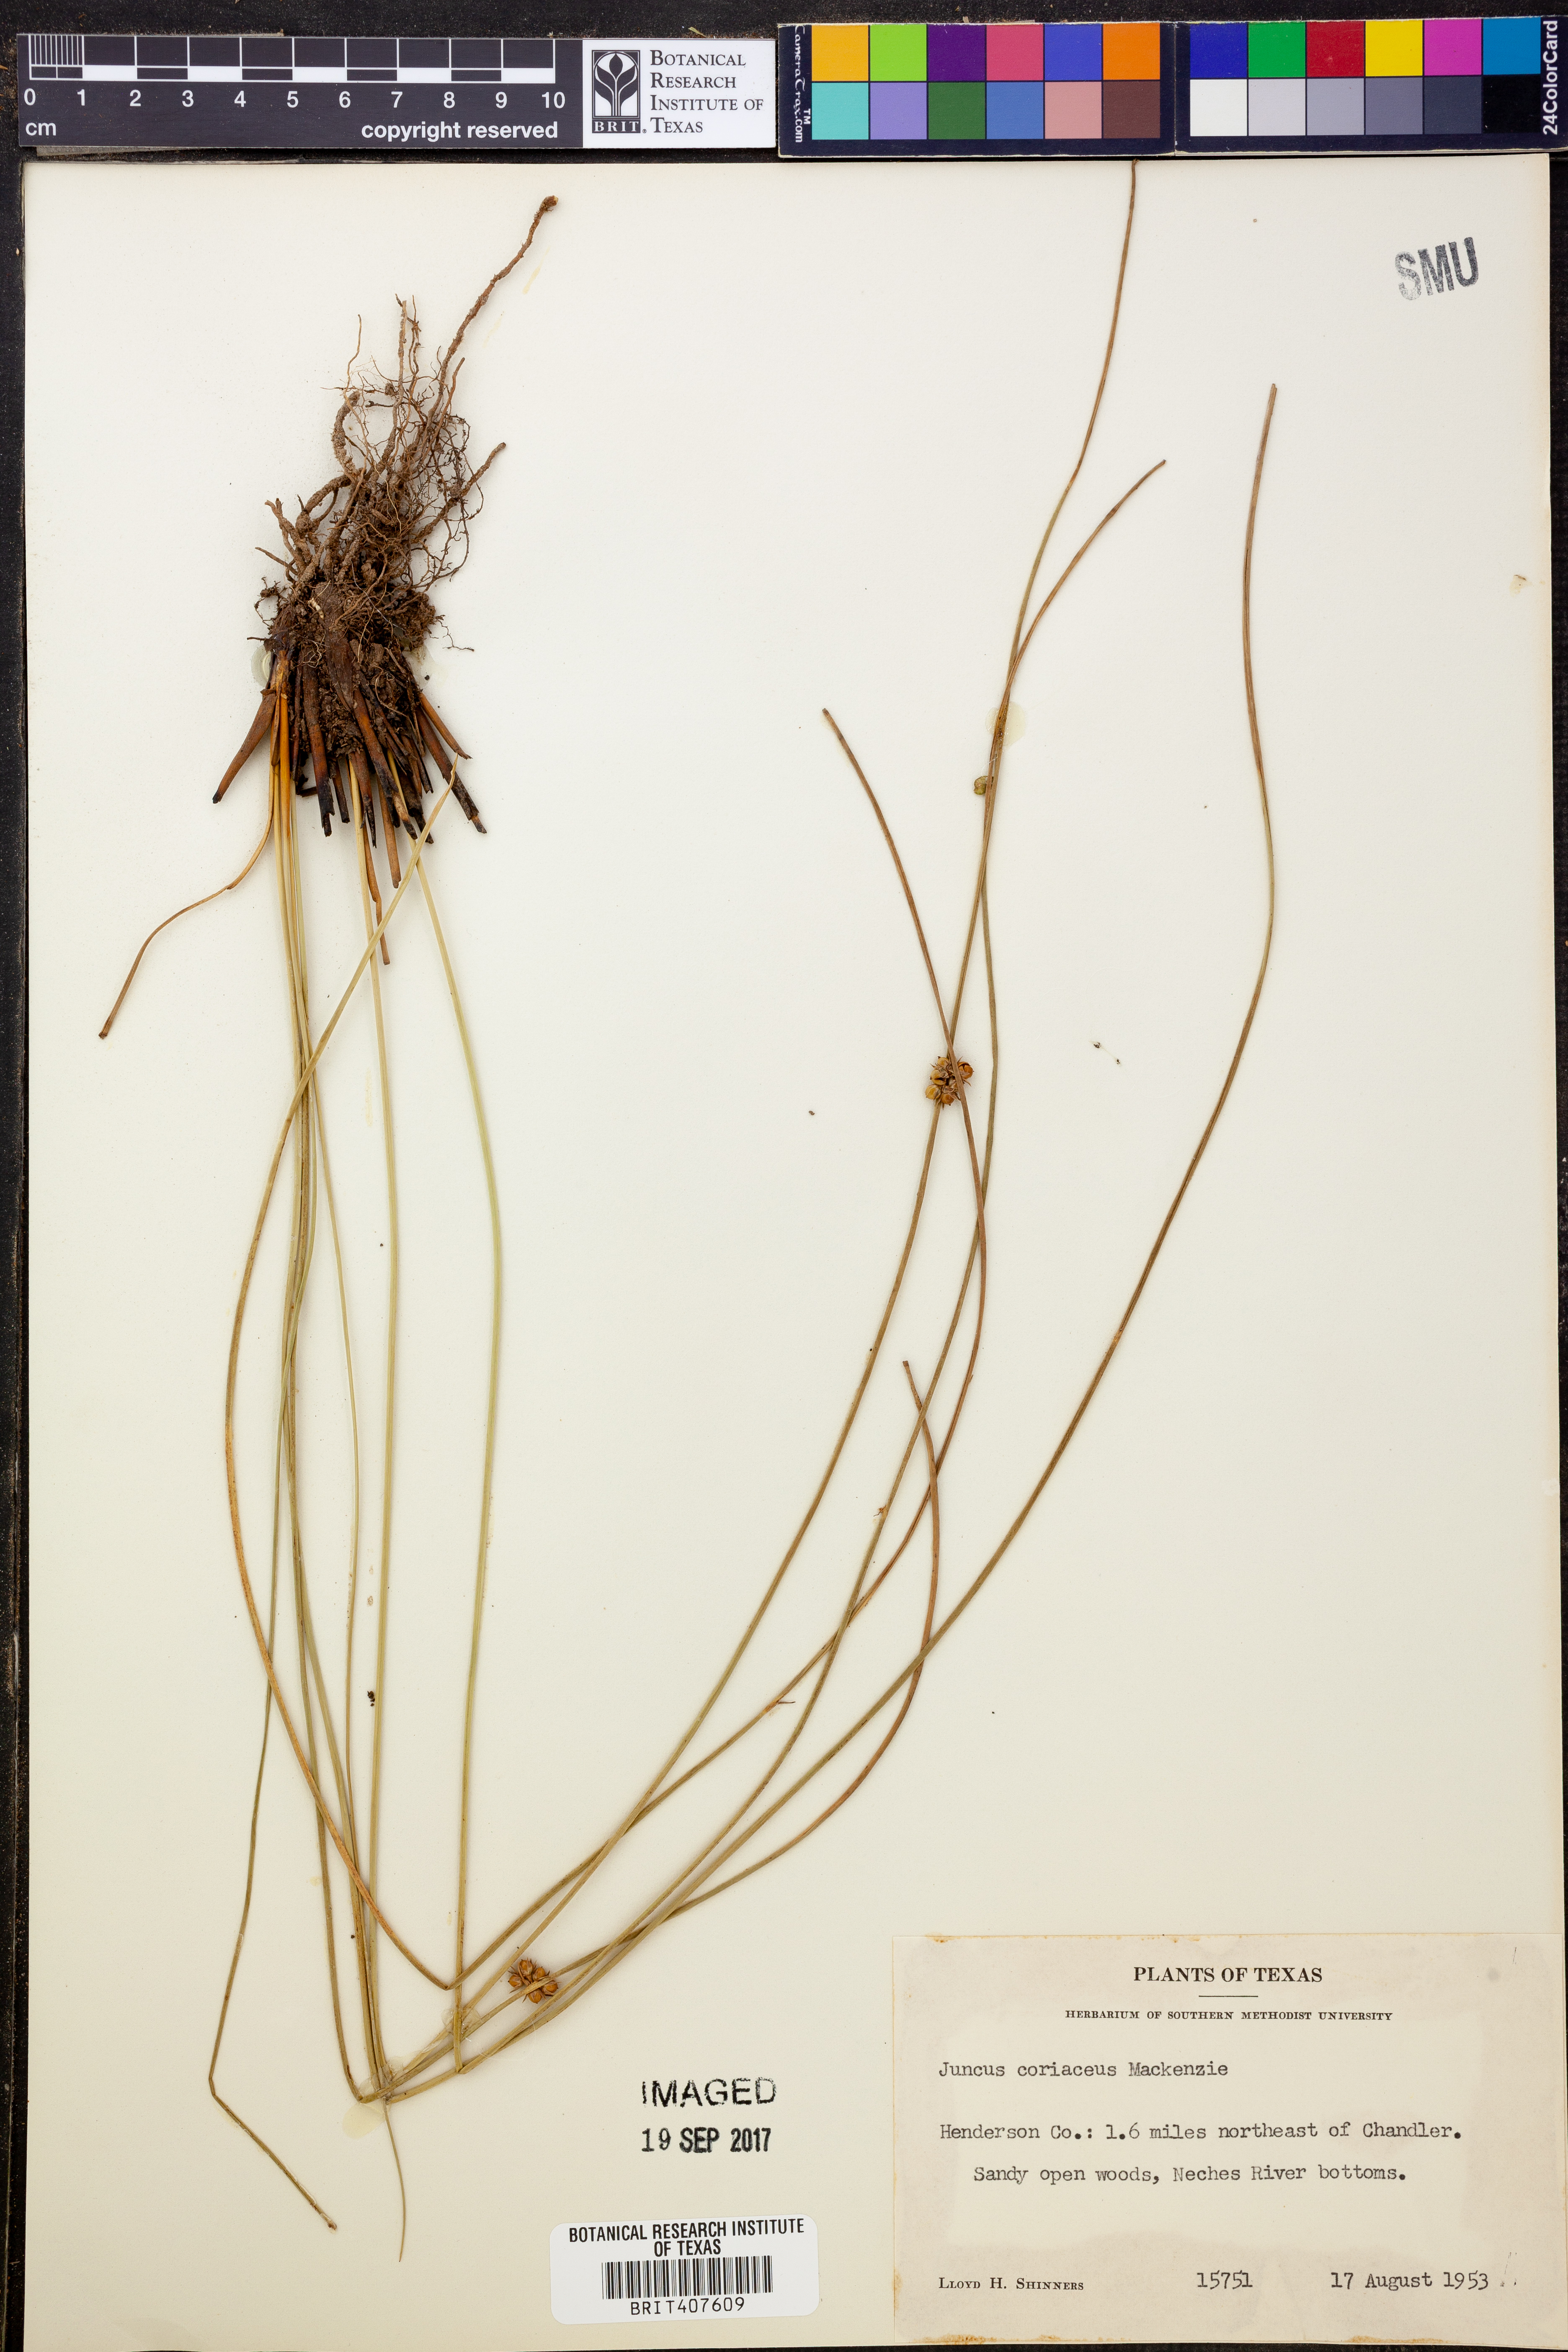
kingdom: Plantae
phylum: Tracheophyta
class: Liliopsida
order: Poales
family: Juncaceae
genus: Juncus
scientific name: Juncus coriaceus
